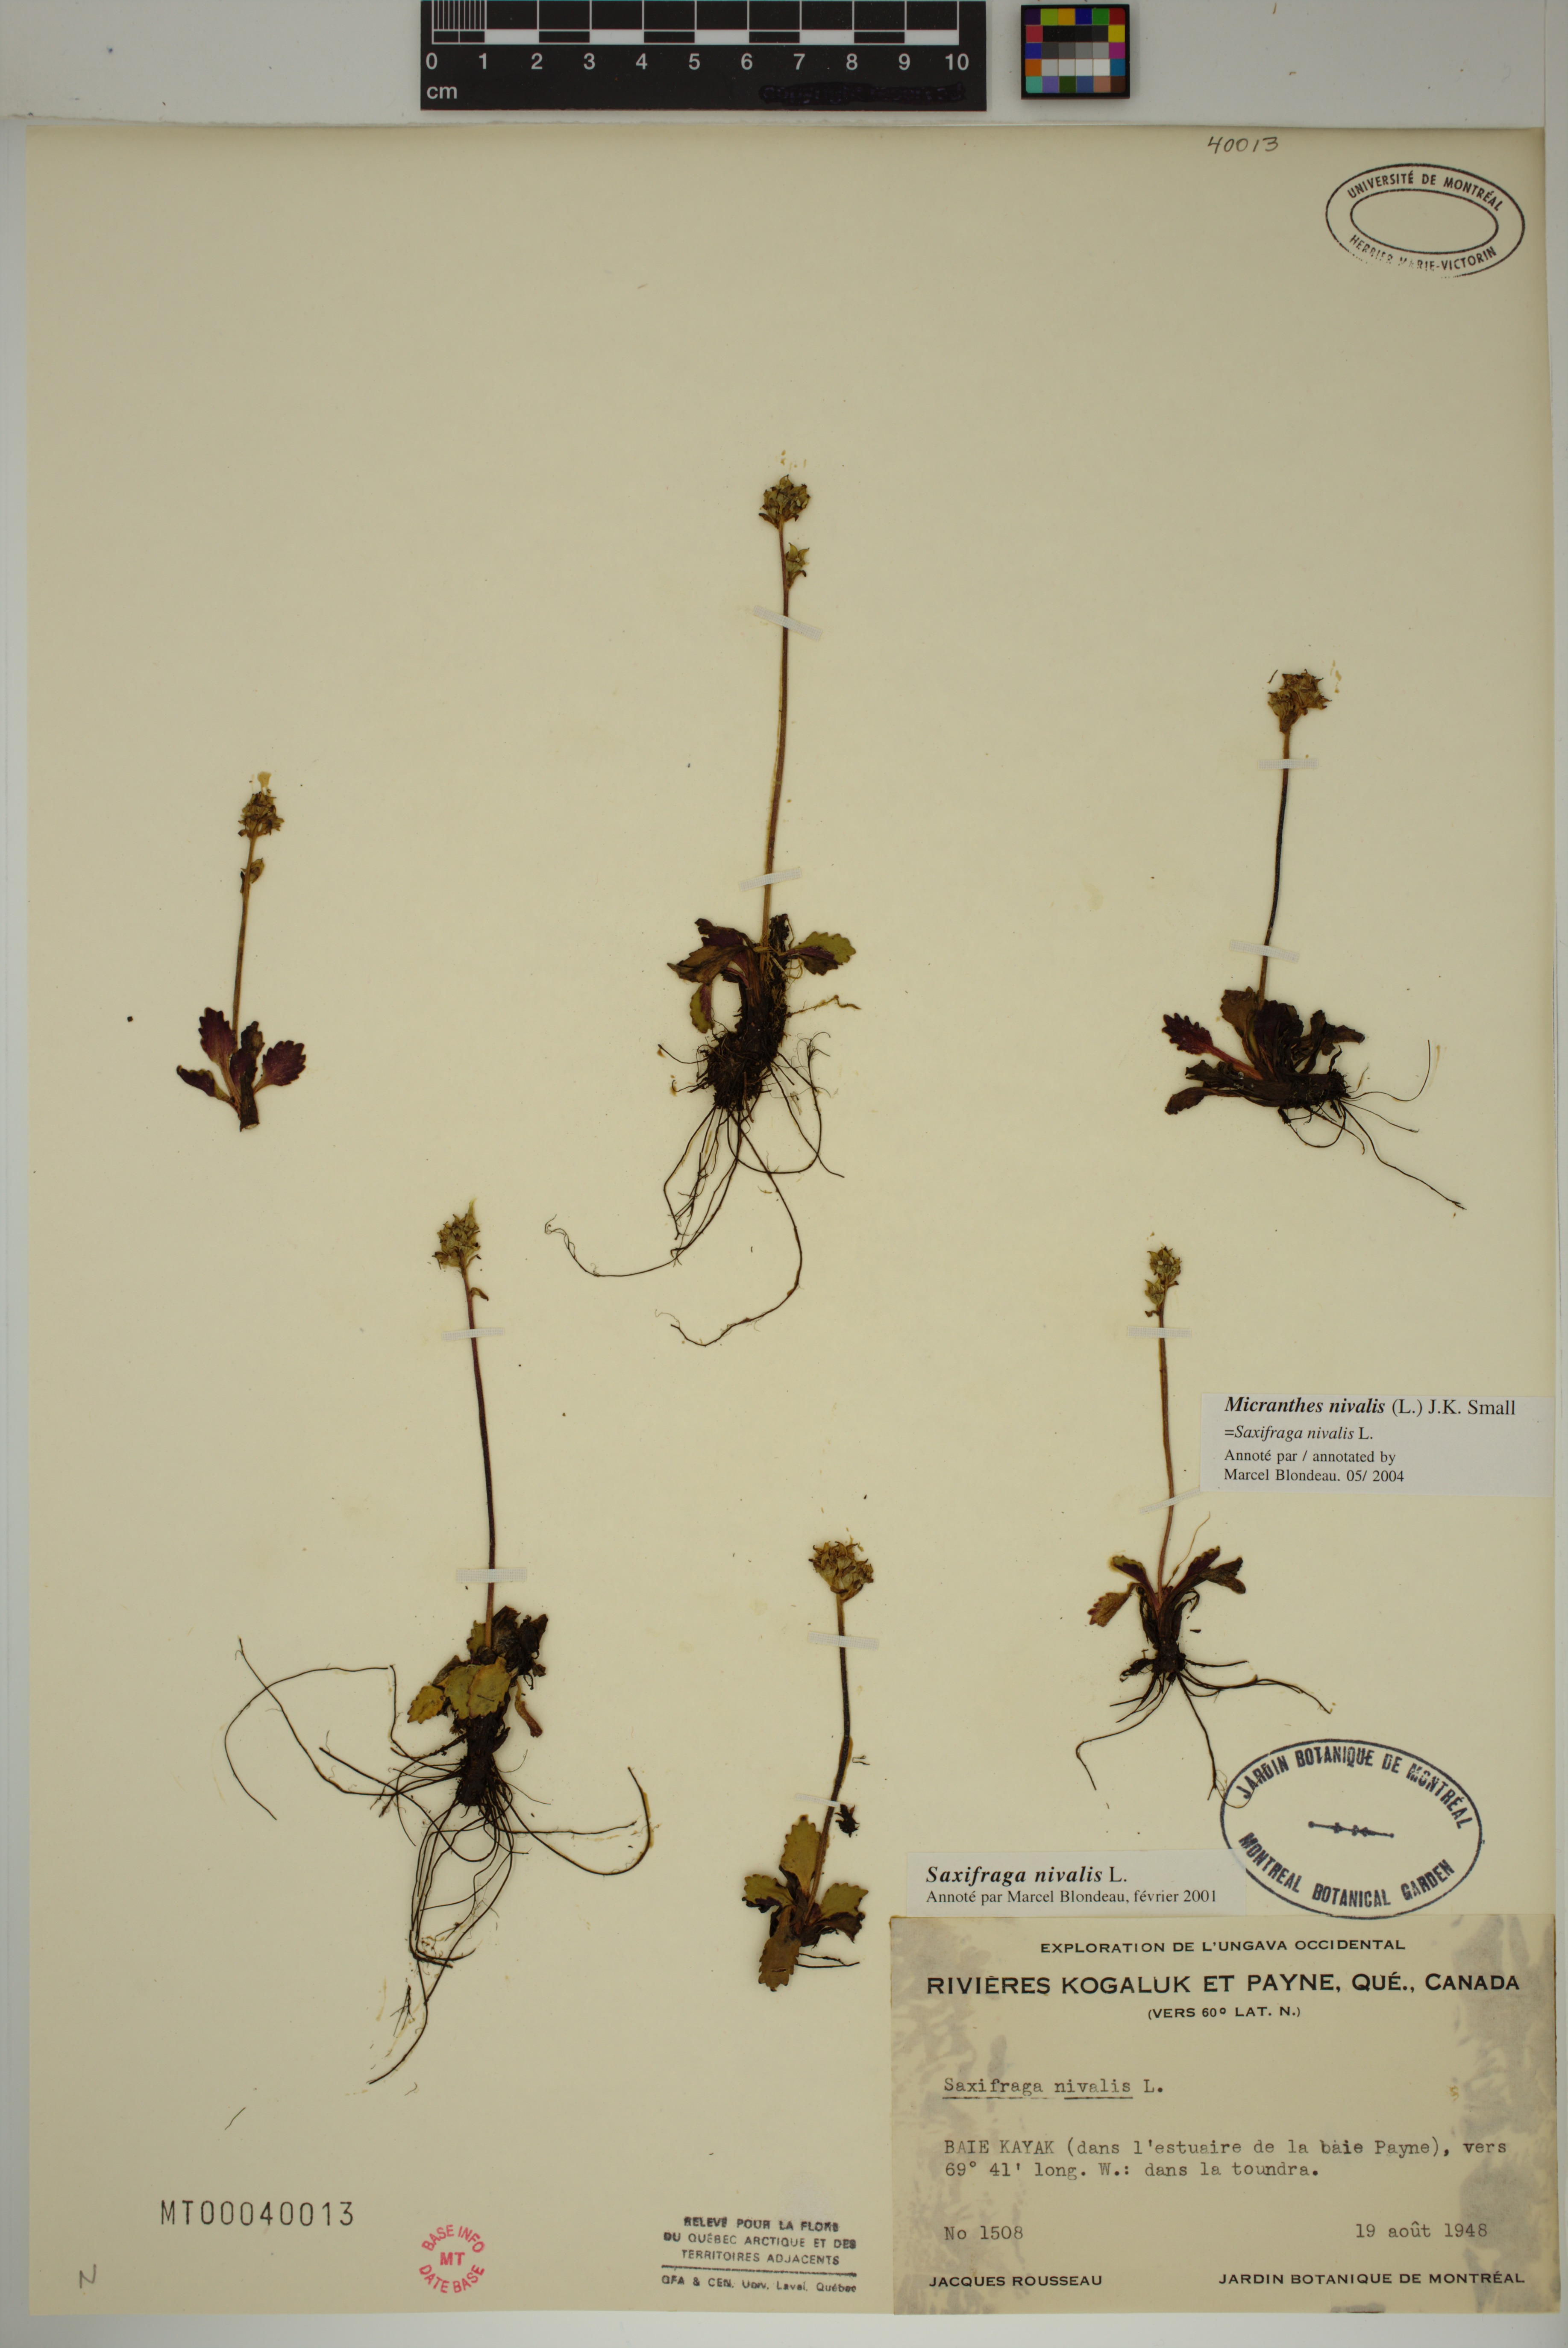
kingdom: Plantae
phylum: Tracheophyta
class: Magnoliopsida
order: Saxifragales
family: Saxifragaceae
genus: Micranthes
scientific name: Micranthes nivalis
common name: Alpine saxifrage
